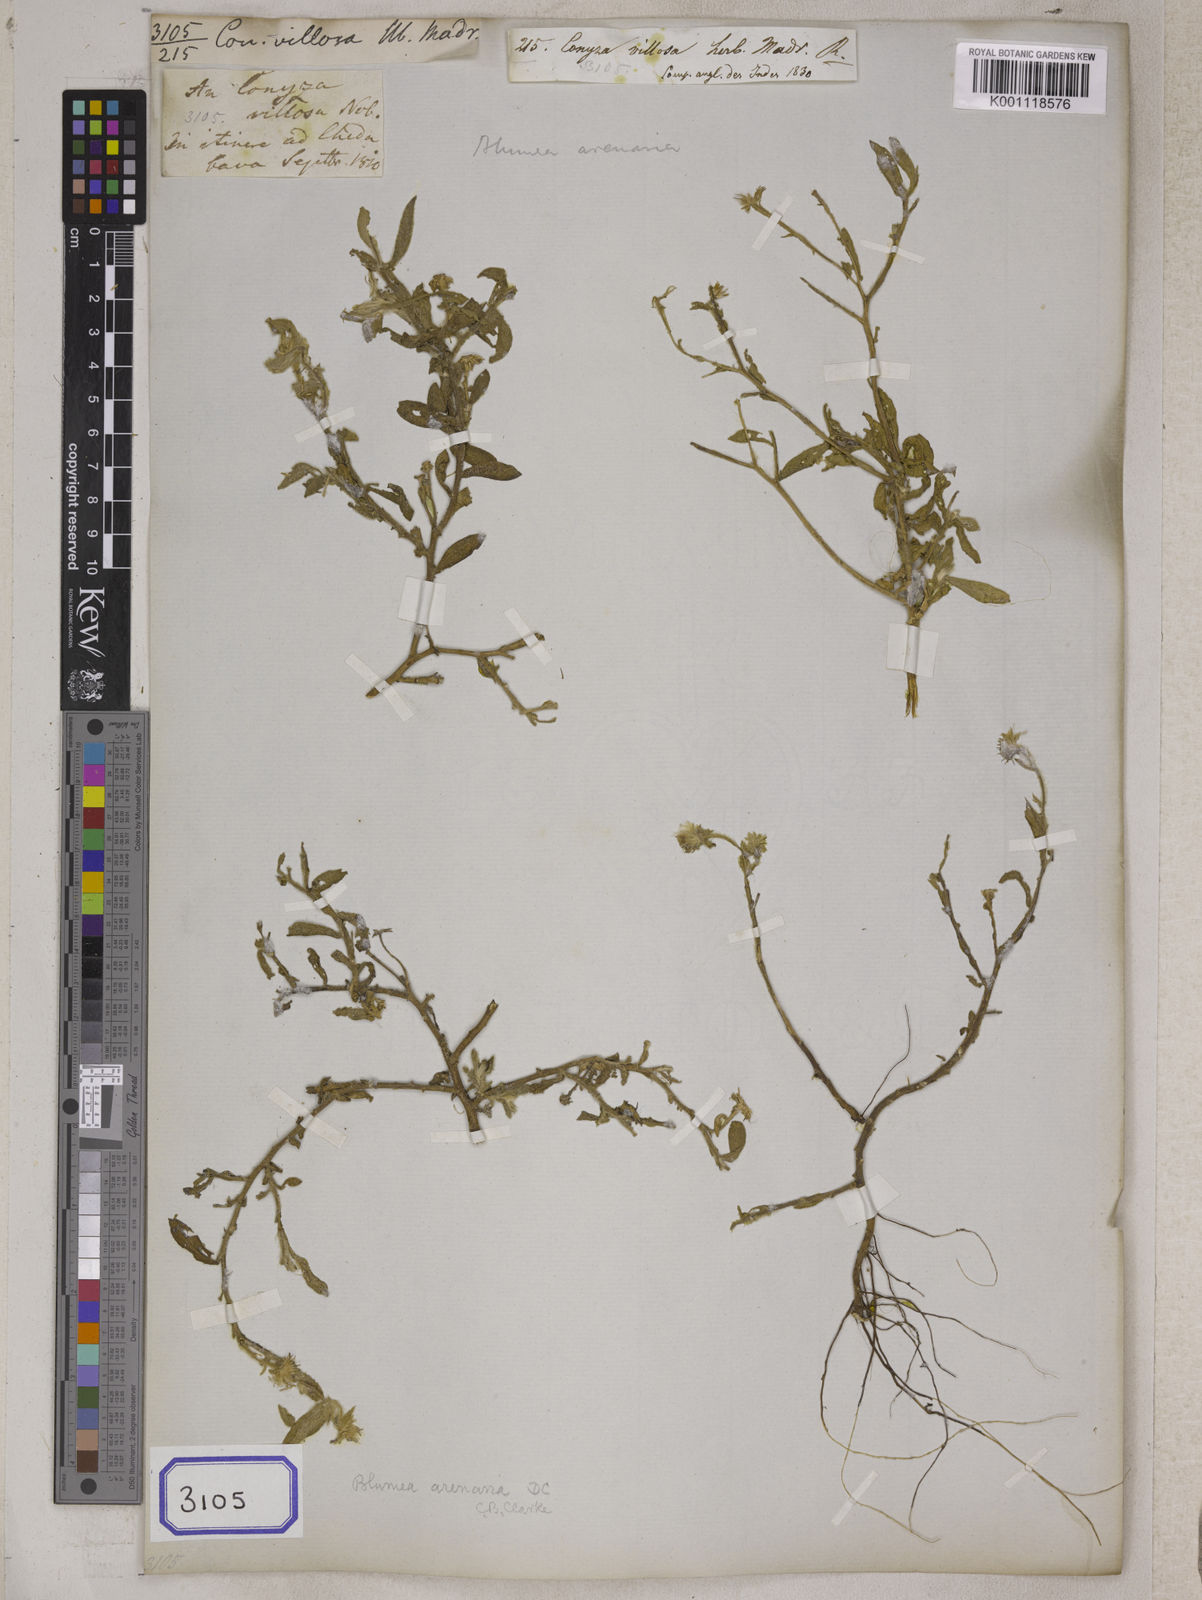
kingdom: Plantae
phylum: Tracheophyta
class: Magnoliopsida
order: Asterales
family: Asteraceae
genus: Blumea
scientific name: Blumea obliqua
